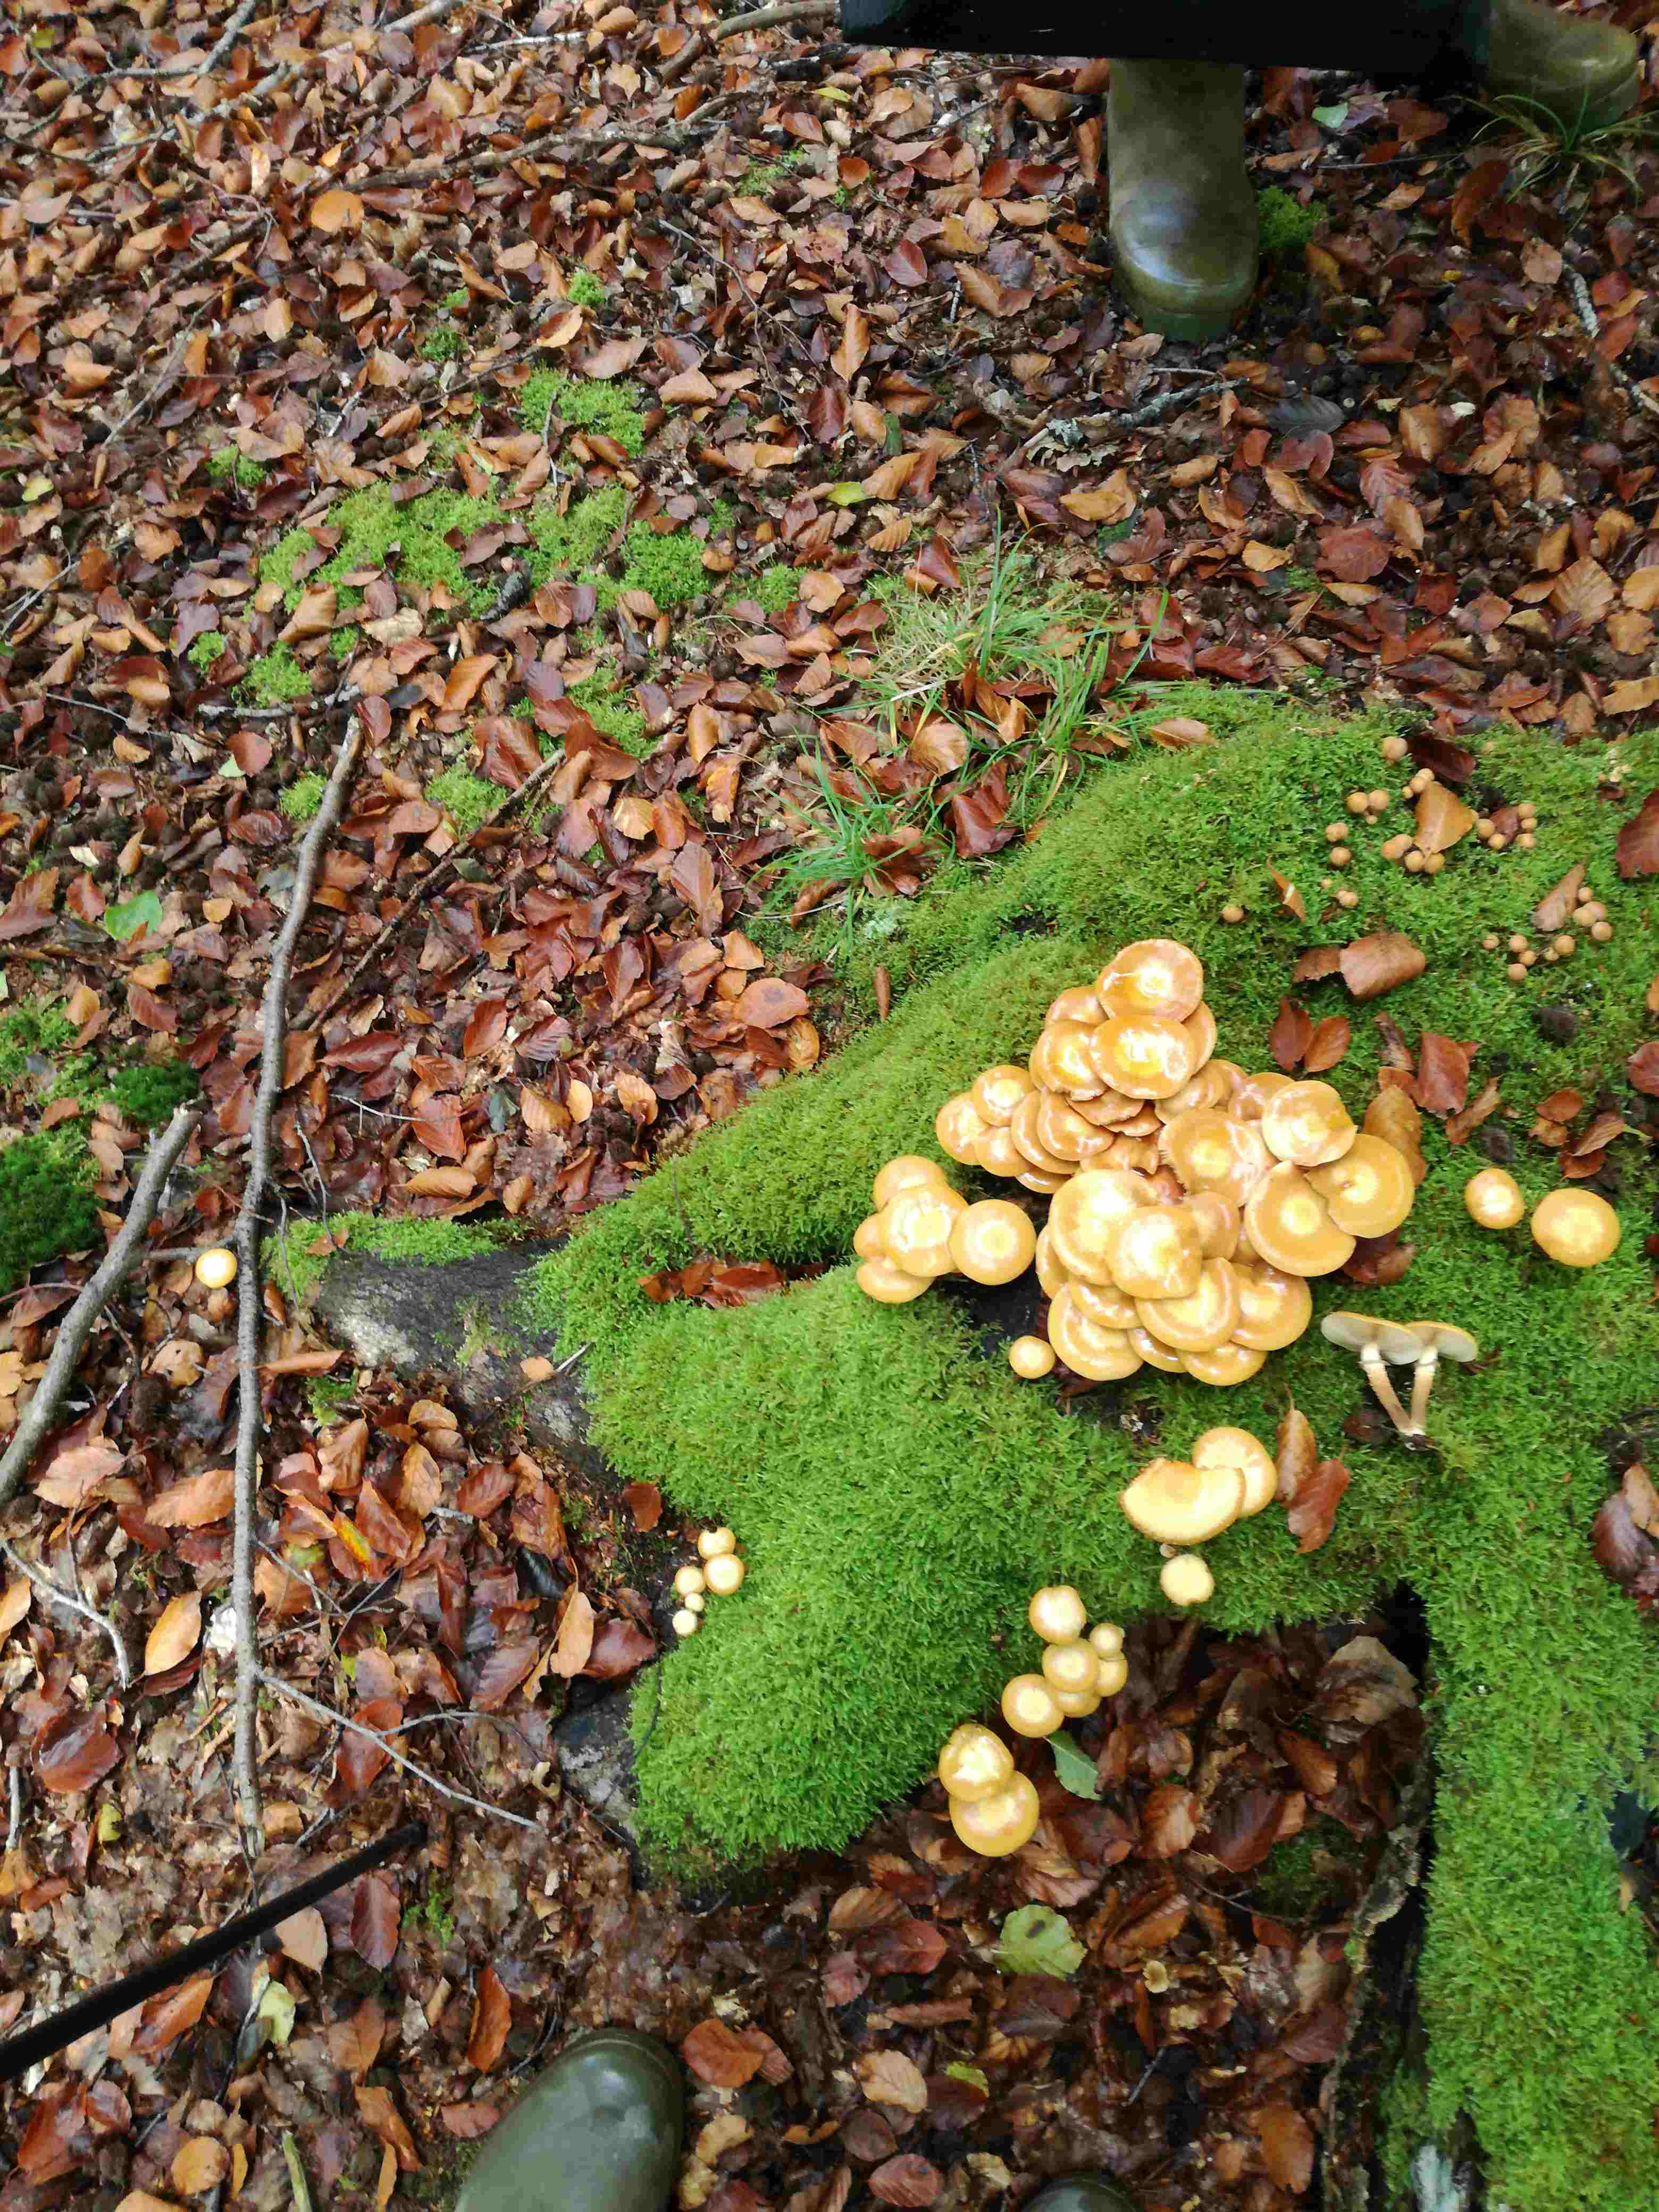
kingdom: Fungi
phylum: Basidiomycota
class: Agaricomycetes
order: Agaricales
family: Strophariaceae
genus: Kuehneromyces
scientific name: Kuehneromyces mutabilis
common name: foranderlig skælhat
